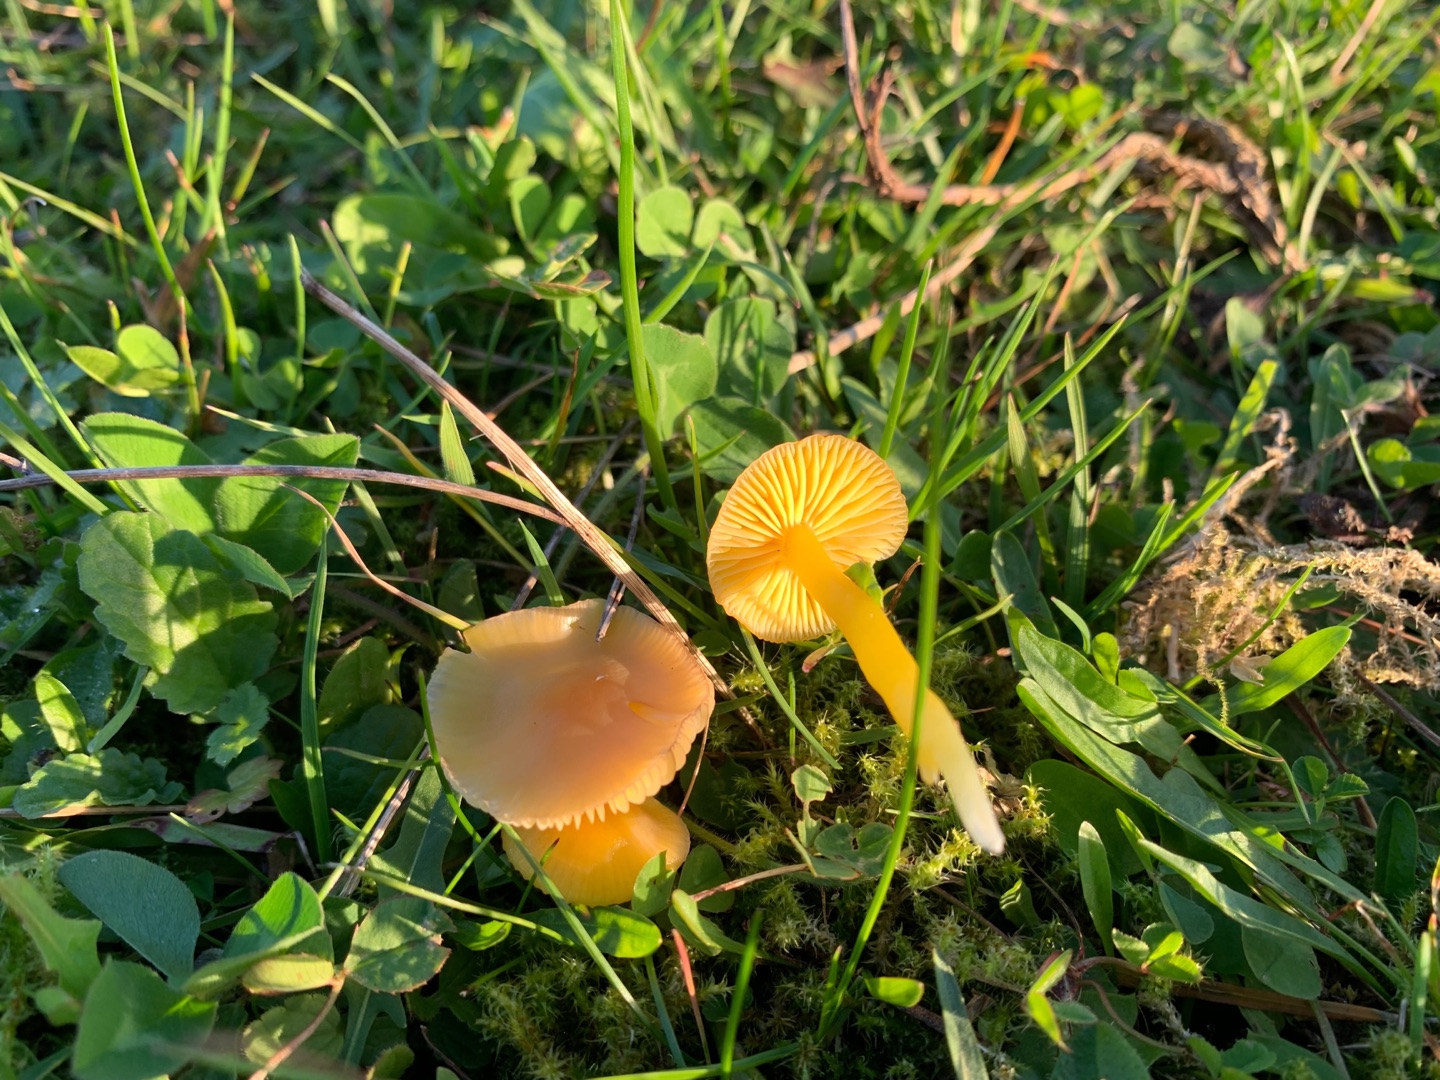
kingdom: Fungi
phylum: Basidiomycota
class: Agaricomycetes
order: Agaricales
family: Hygrophoraceae
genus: Hygrocybe
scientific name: Hygrocybe ceracea
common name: Voksgul vokshat
